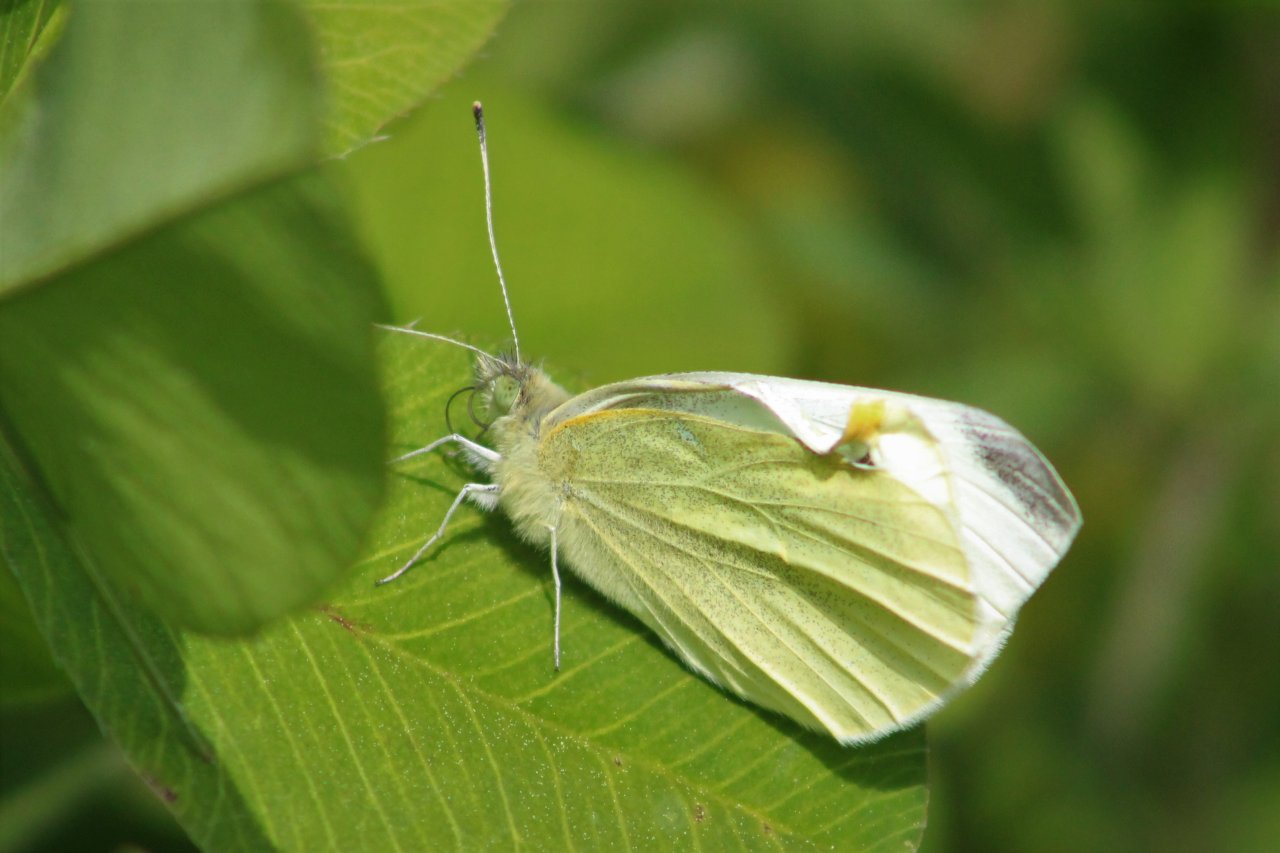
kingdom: Animalia
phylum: Arthropoda
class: Insecta
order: Lepidoptera
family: Pieridae
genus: Eurema
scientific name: Eurema daira
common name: Barred Yellow
